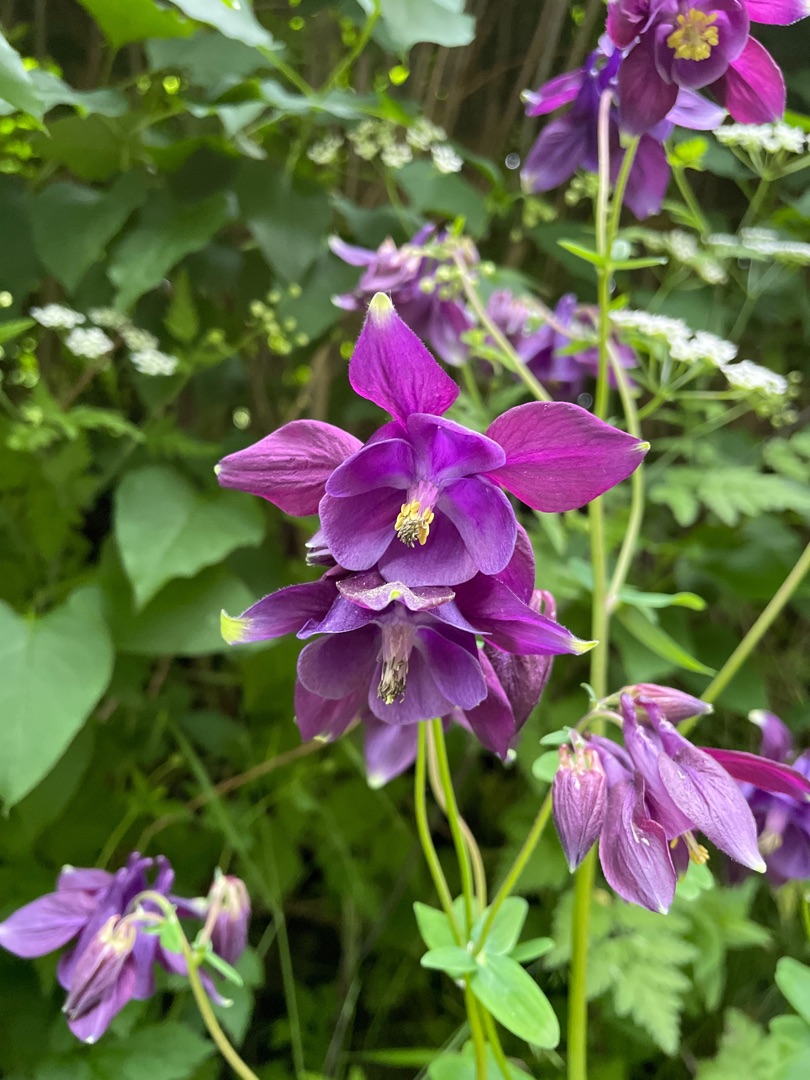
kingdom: Plantae
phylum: Tracheophyta
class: Magnoliopsida
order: Ranunculales
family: Ranunculaceae
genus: Aquilegia
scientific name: Aquilegia vulgaris
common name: Akeleje
